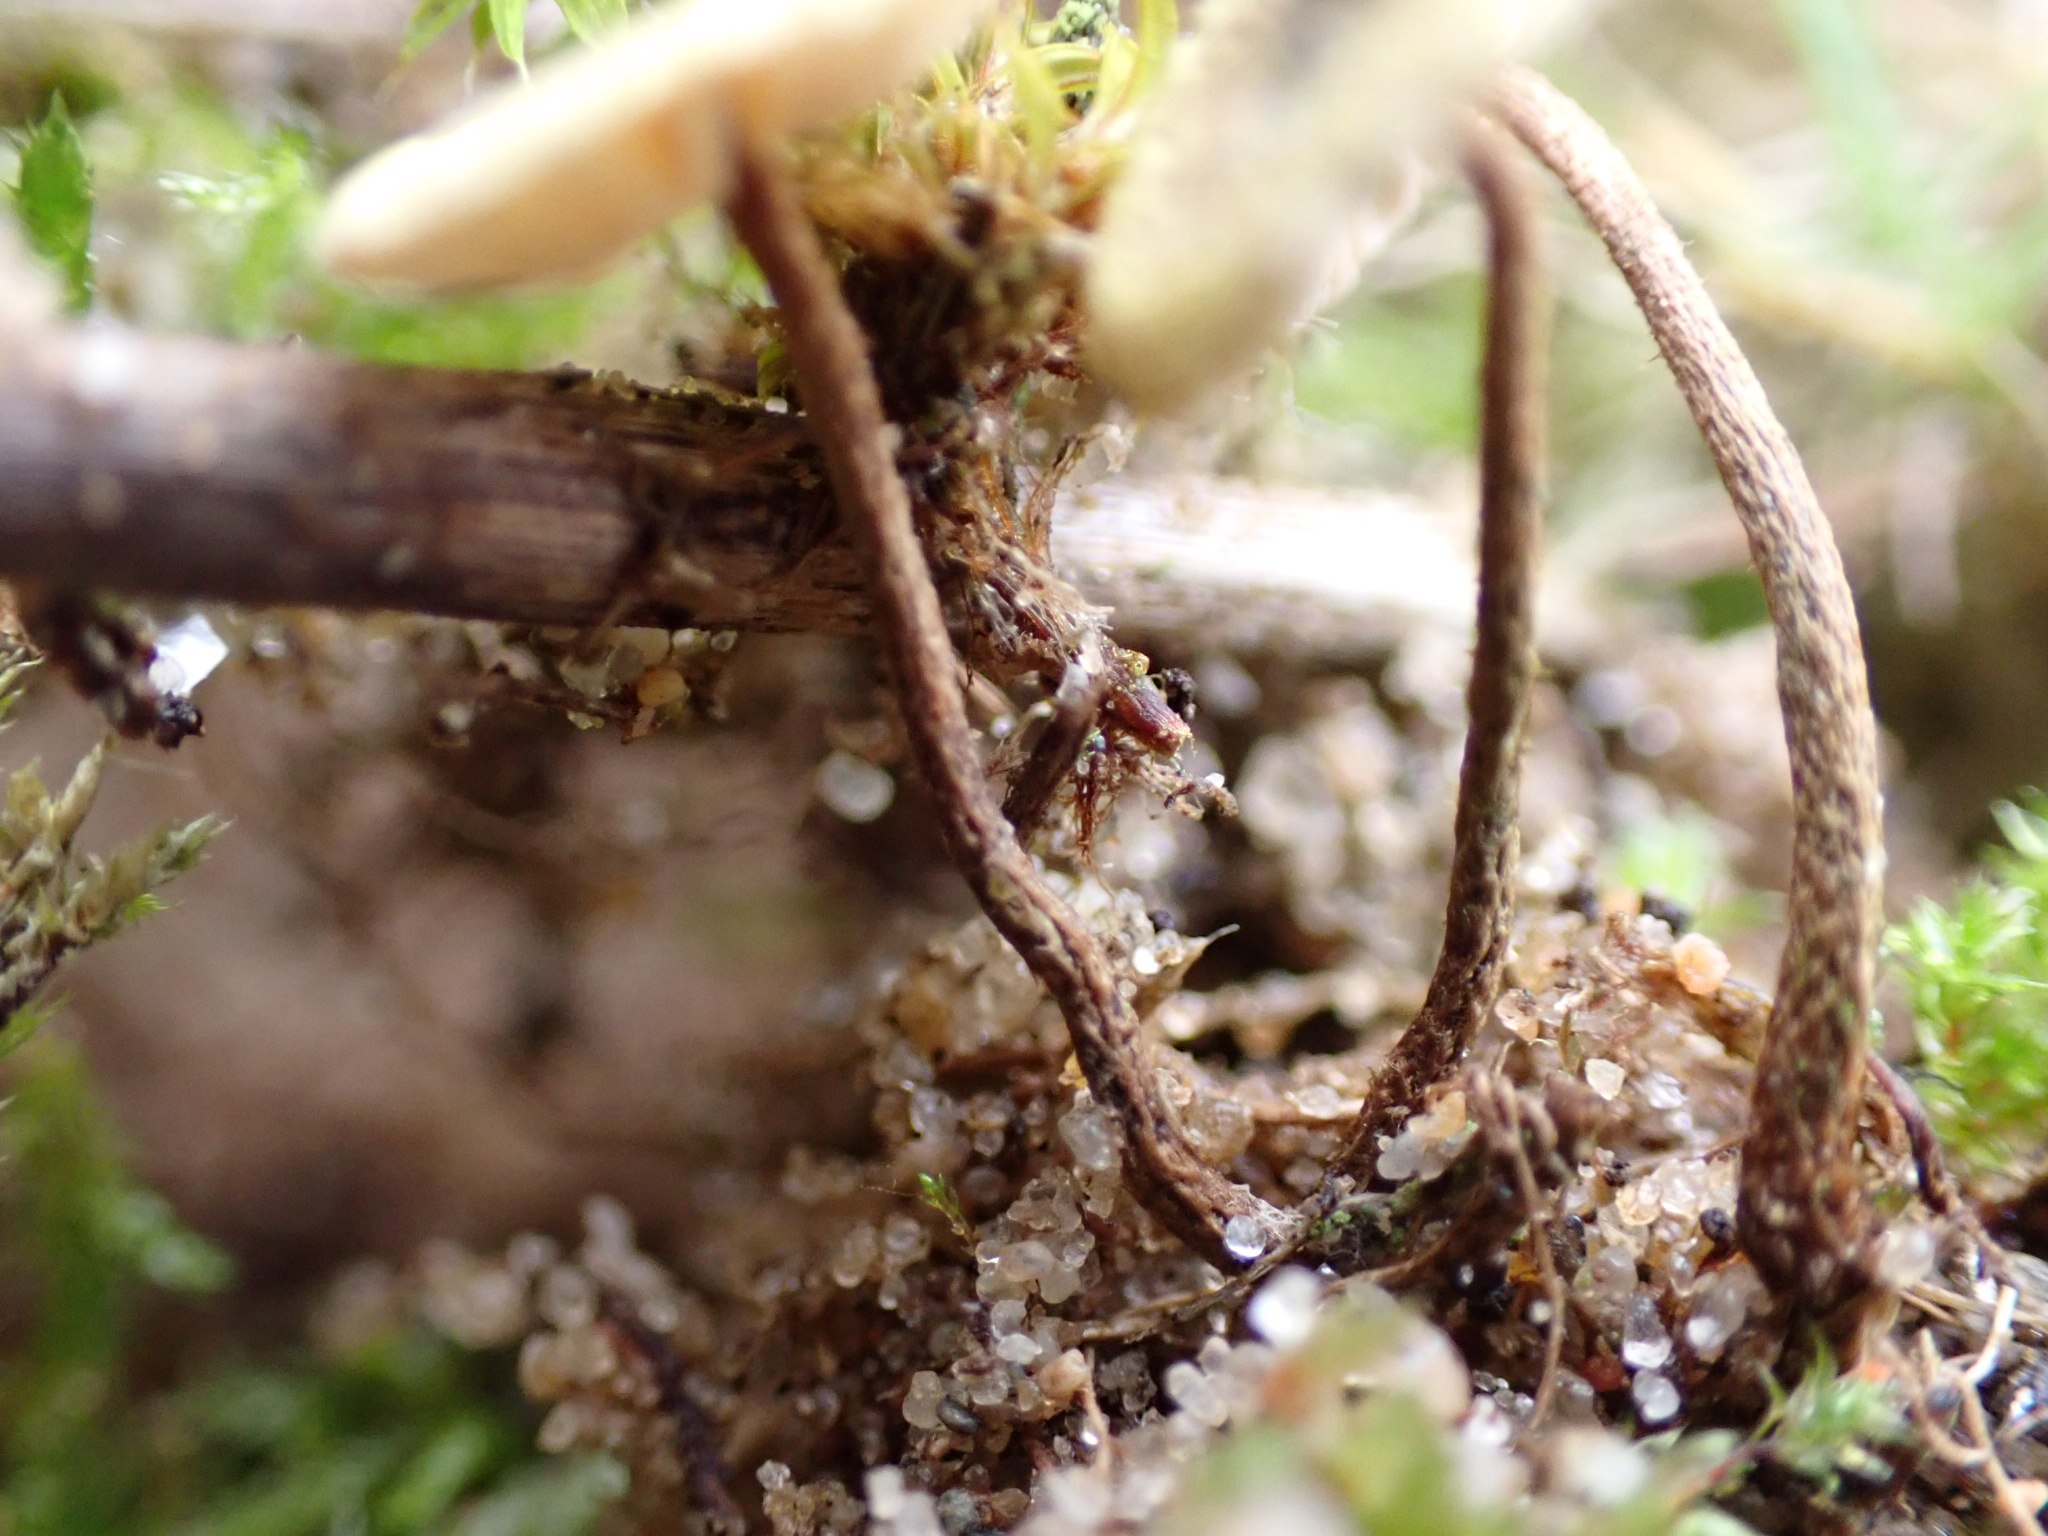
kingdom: Fungi
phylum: Basidiomycota
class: Agaricomycetes
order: Agaricales
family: Marasmiaceae
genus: Crinipellis
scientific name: Crinipellis scabella
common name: børstefod
